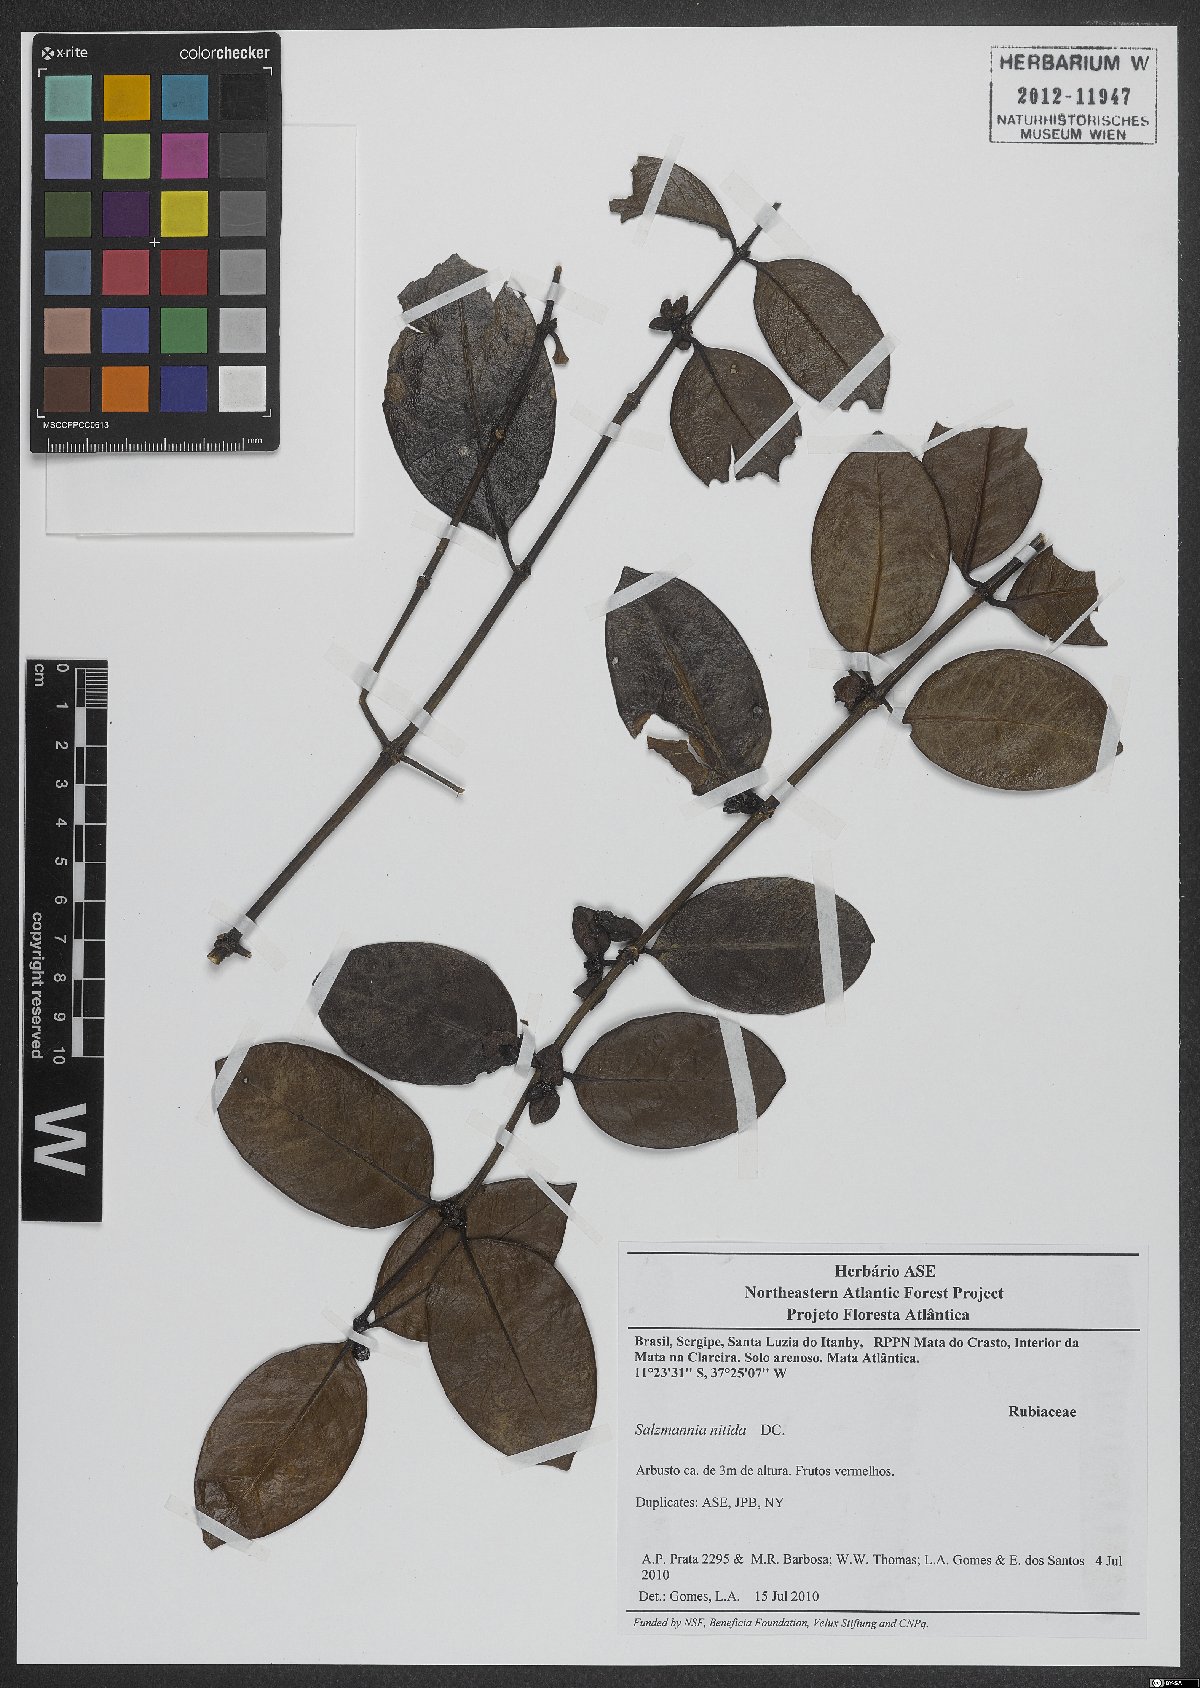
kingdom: Plantae
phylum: Tracheophyta
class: Magnoliopsida
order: Gentianales
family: Rubiaceae
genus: Salzmannia
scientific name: Salzmannia nitida
